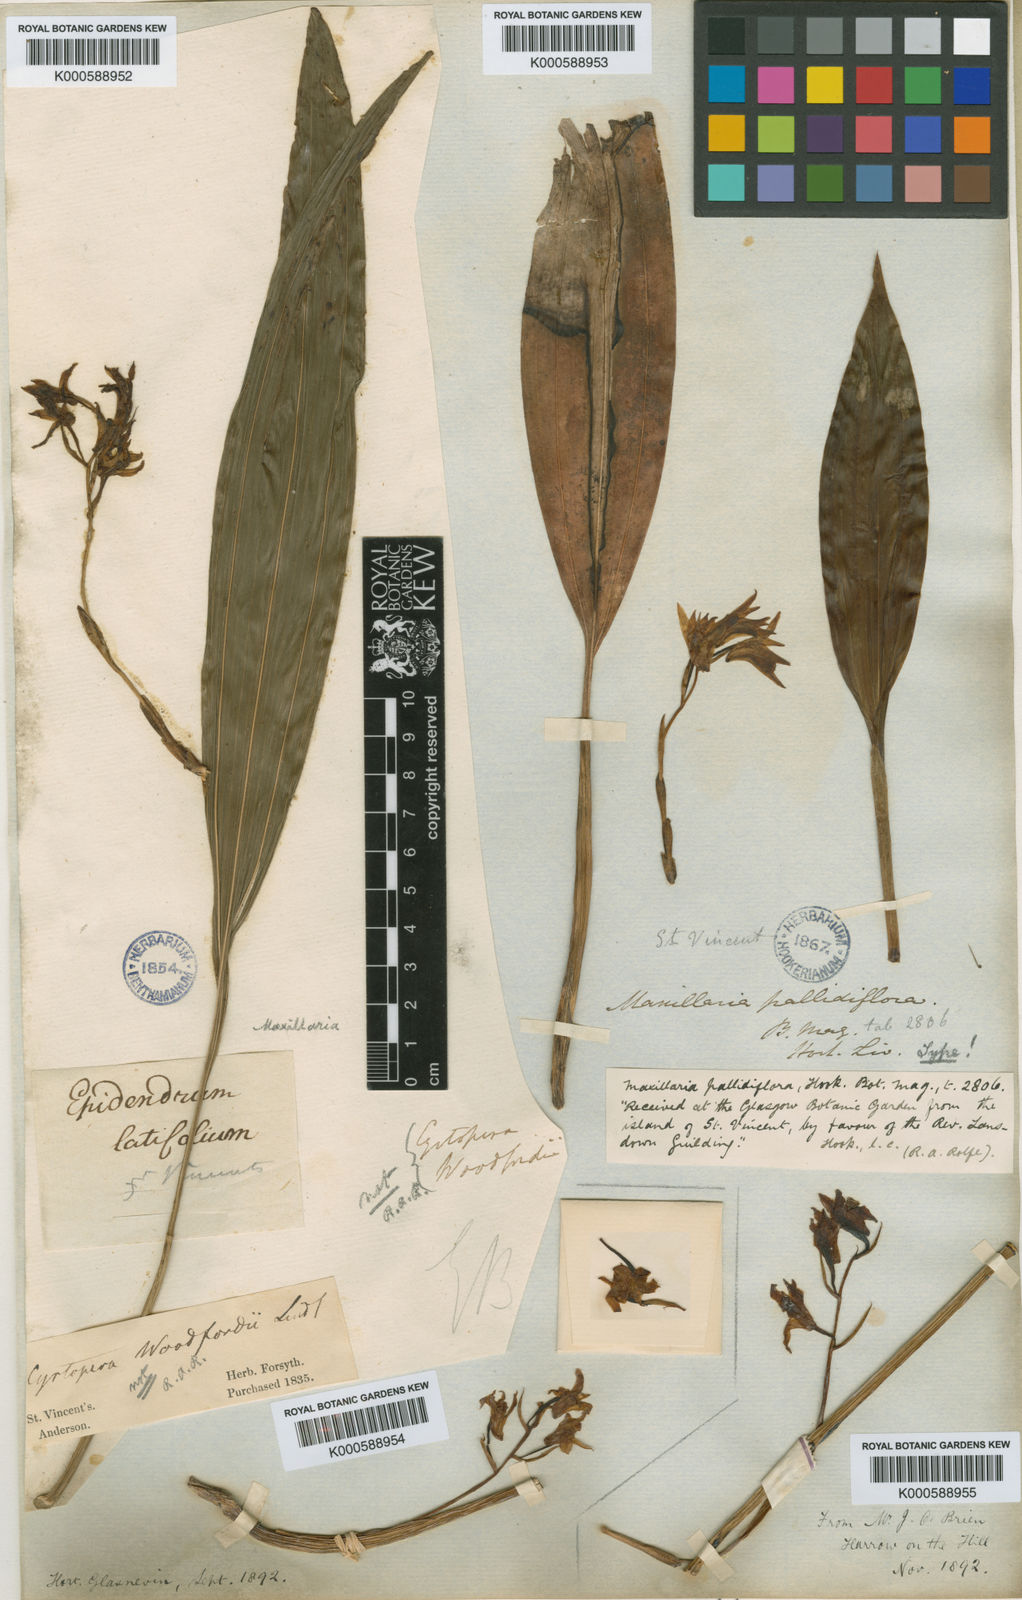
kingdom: Plantae
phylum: Tracheophyta
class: Liliopsida
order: Asparagales
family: Orchidaceae
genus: Xylobium
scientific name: Xylobium pallidiflorum
